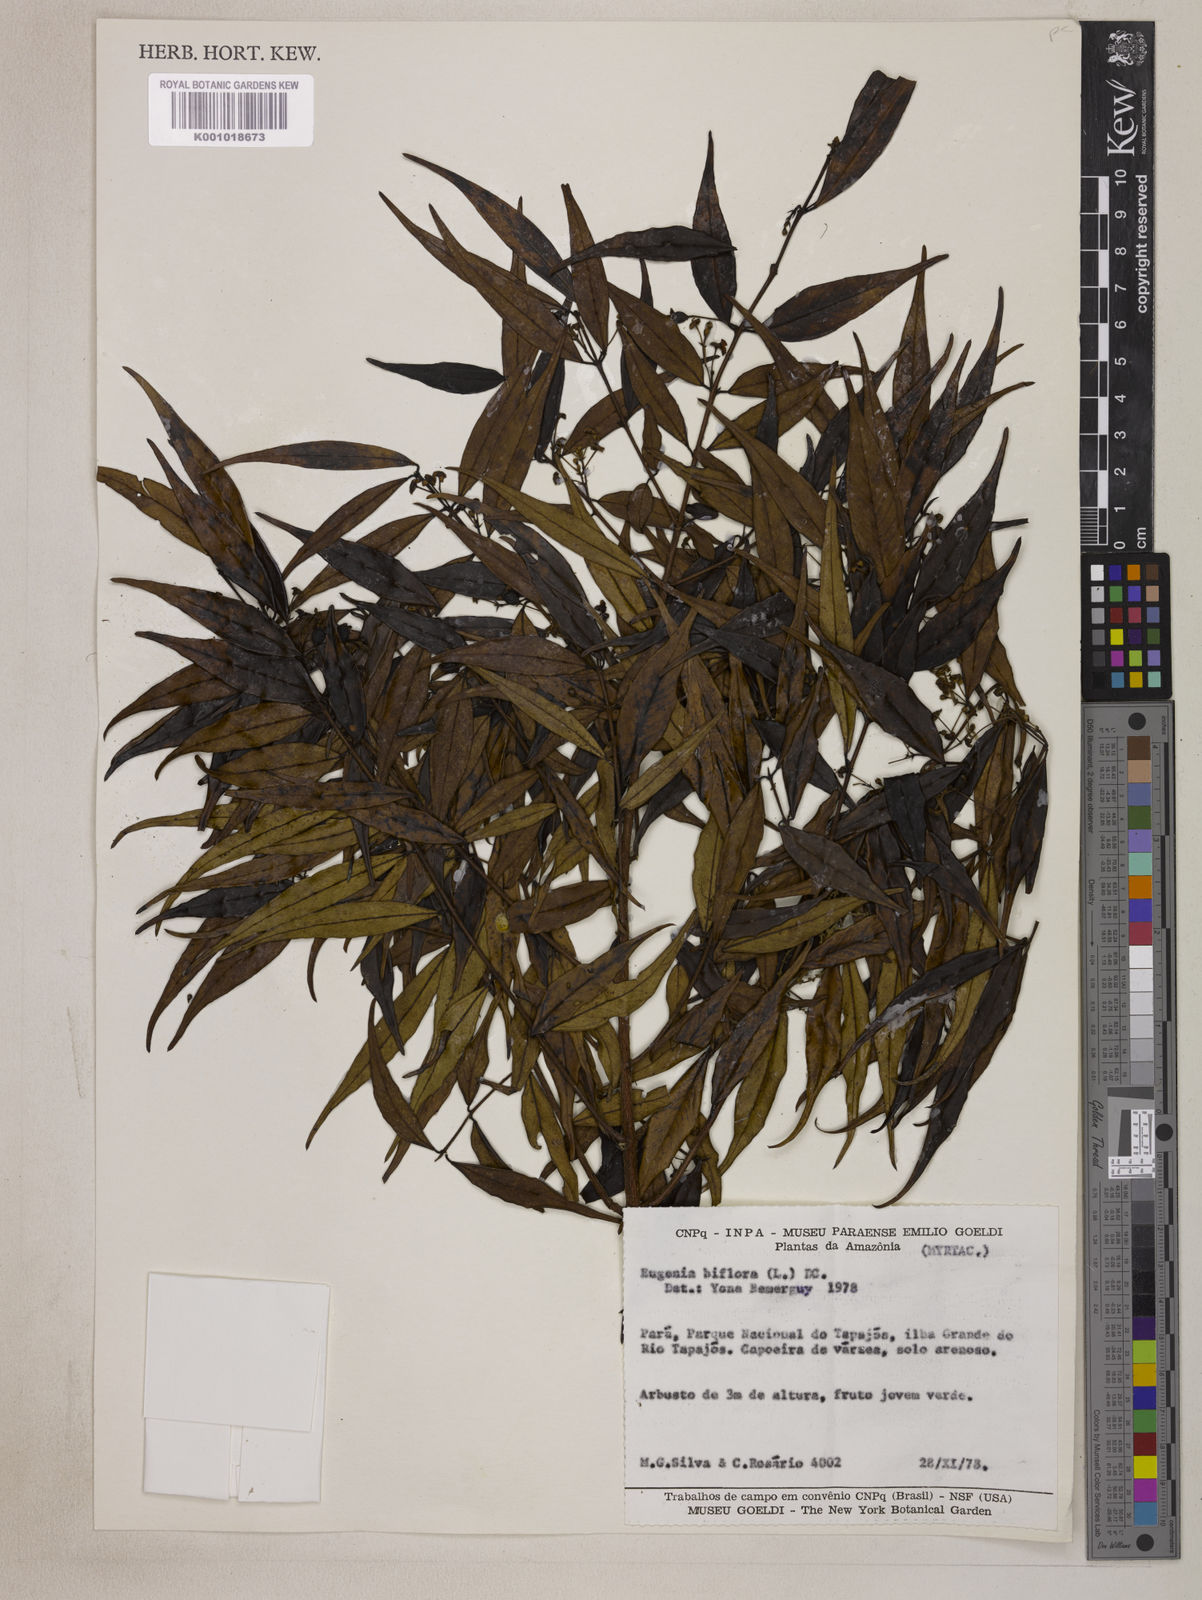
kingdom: Plantae
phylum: Tracheophyta
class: Magnoliopsida
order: Myrtales
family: Myrtaceae
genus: Eugenia
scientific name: Eugenia biflora
